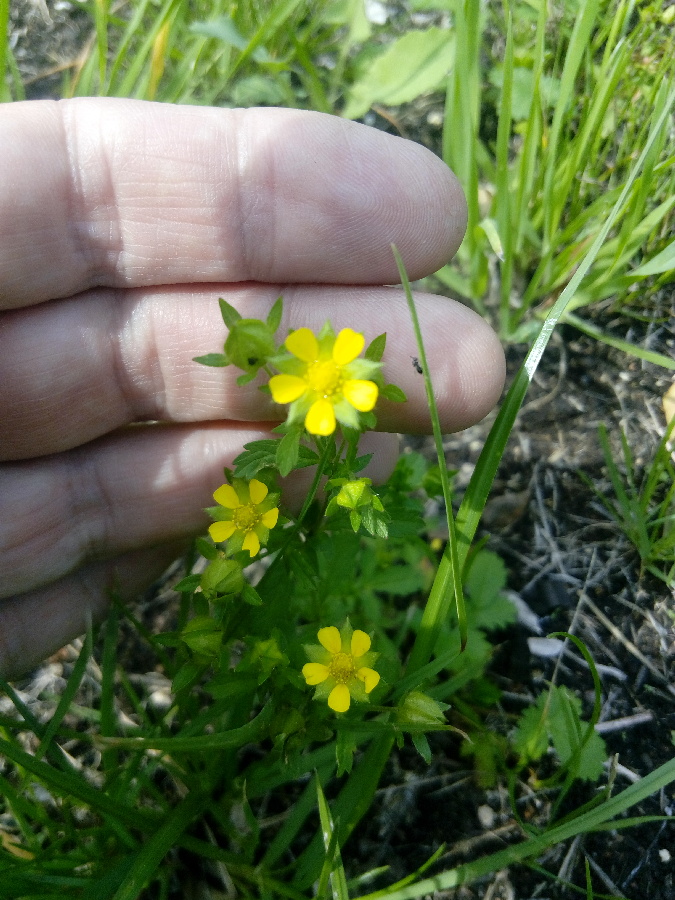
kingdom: Plantae
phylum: Tracheophyta
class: Magnoliopsida
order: Rosales
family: Rosaceae
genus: Potentilla
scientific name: Potentilla argentea
